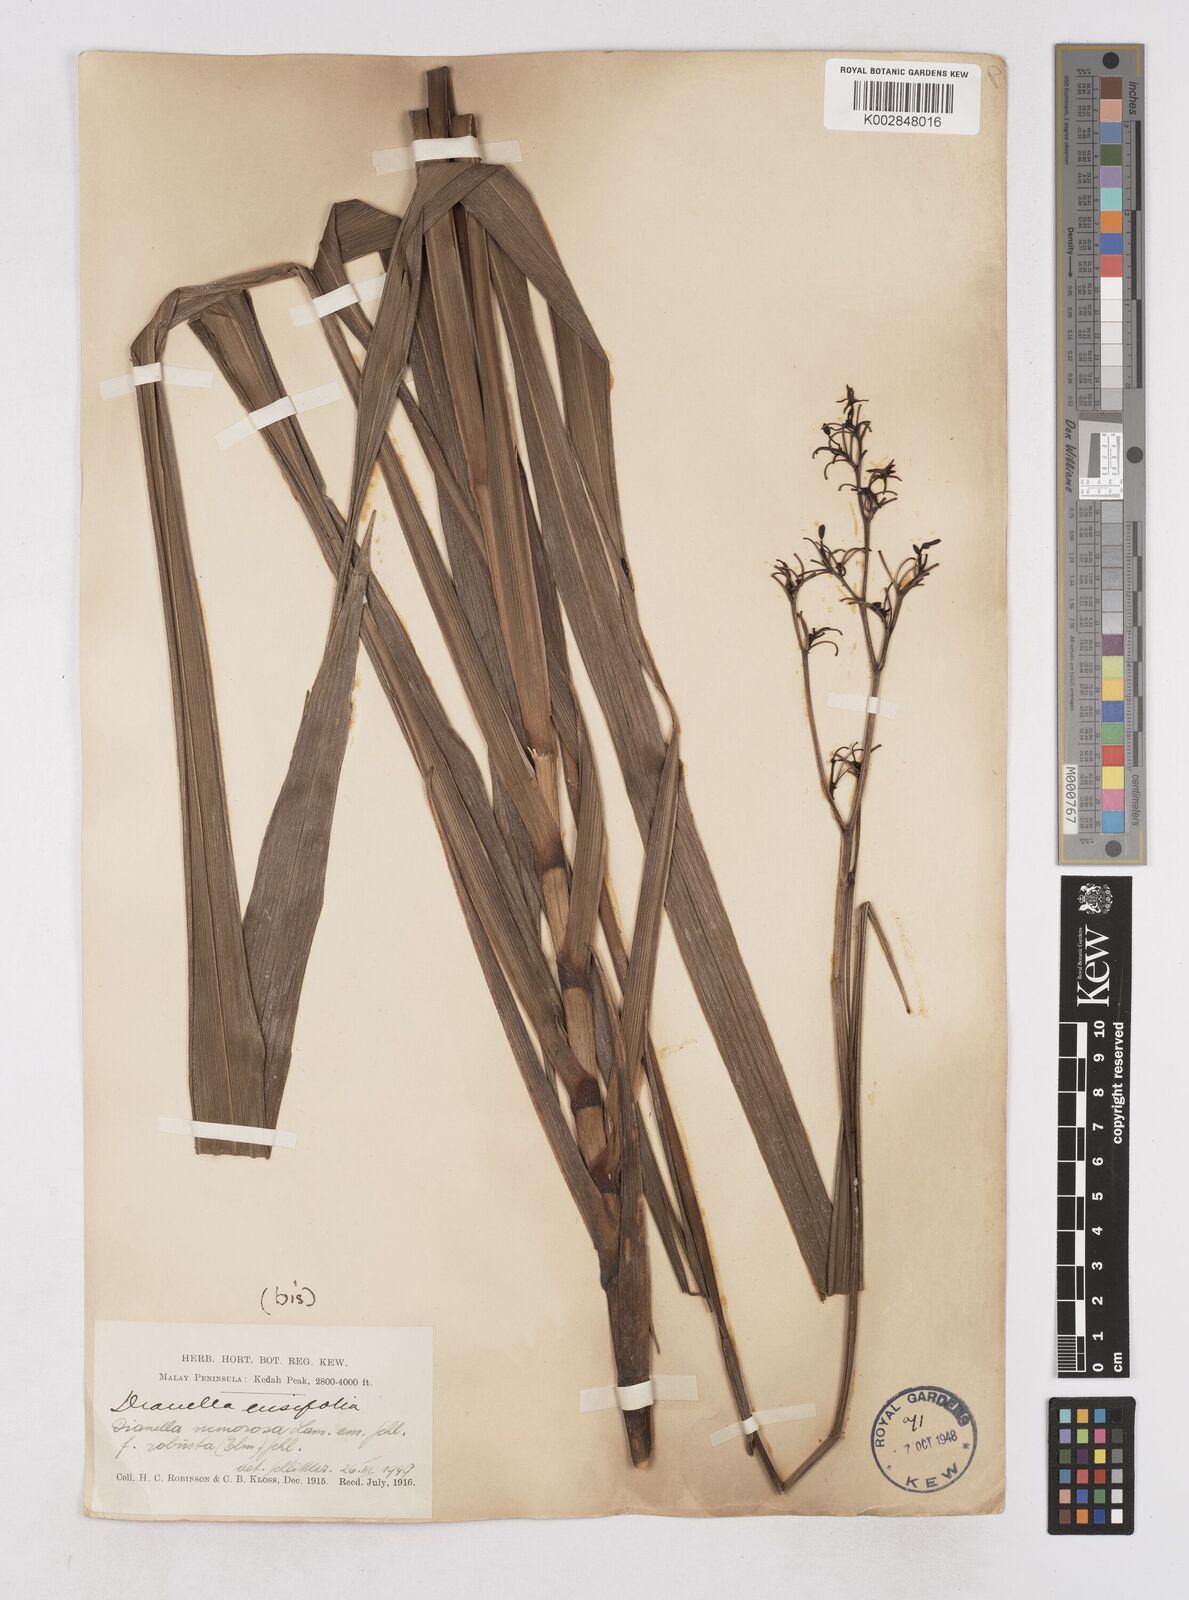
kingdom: Plantae
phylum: Tracheophyta
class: Liliopsida
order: Asparagales
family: Asphodelaceae
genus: Dianella
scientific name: Dianella ensifolia
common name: New zealand lilyplant
